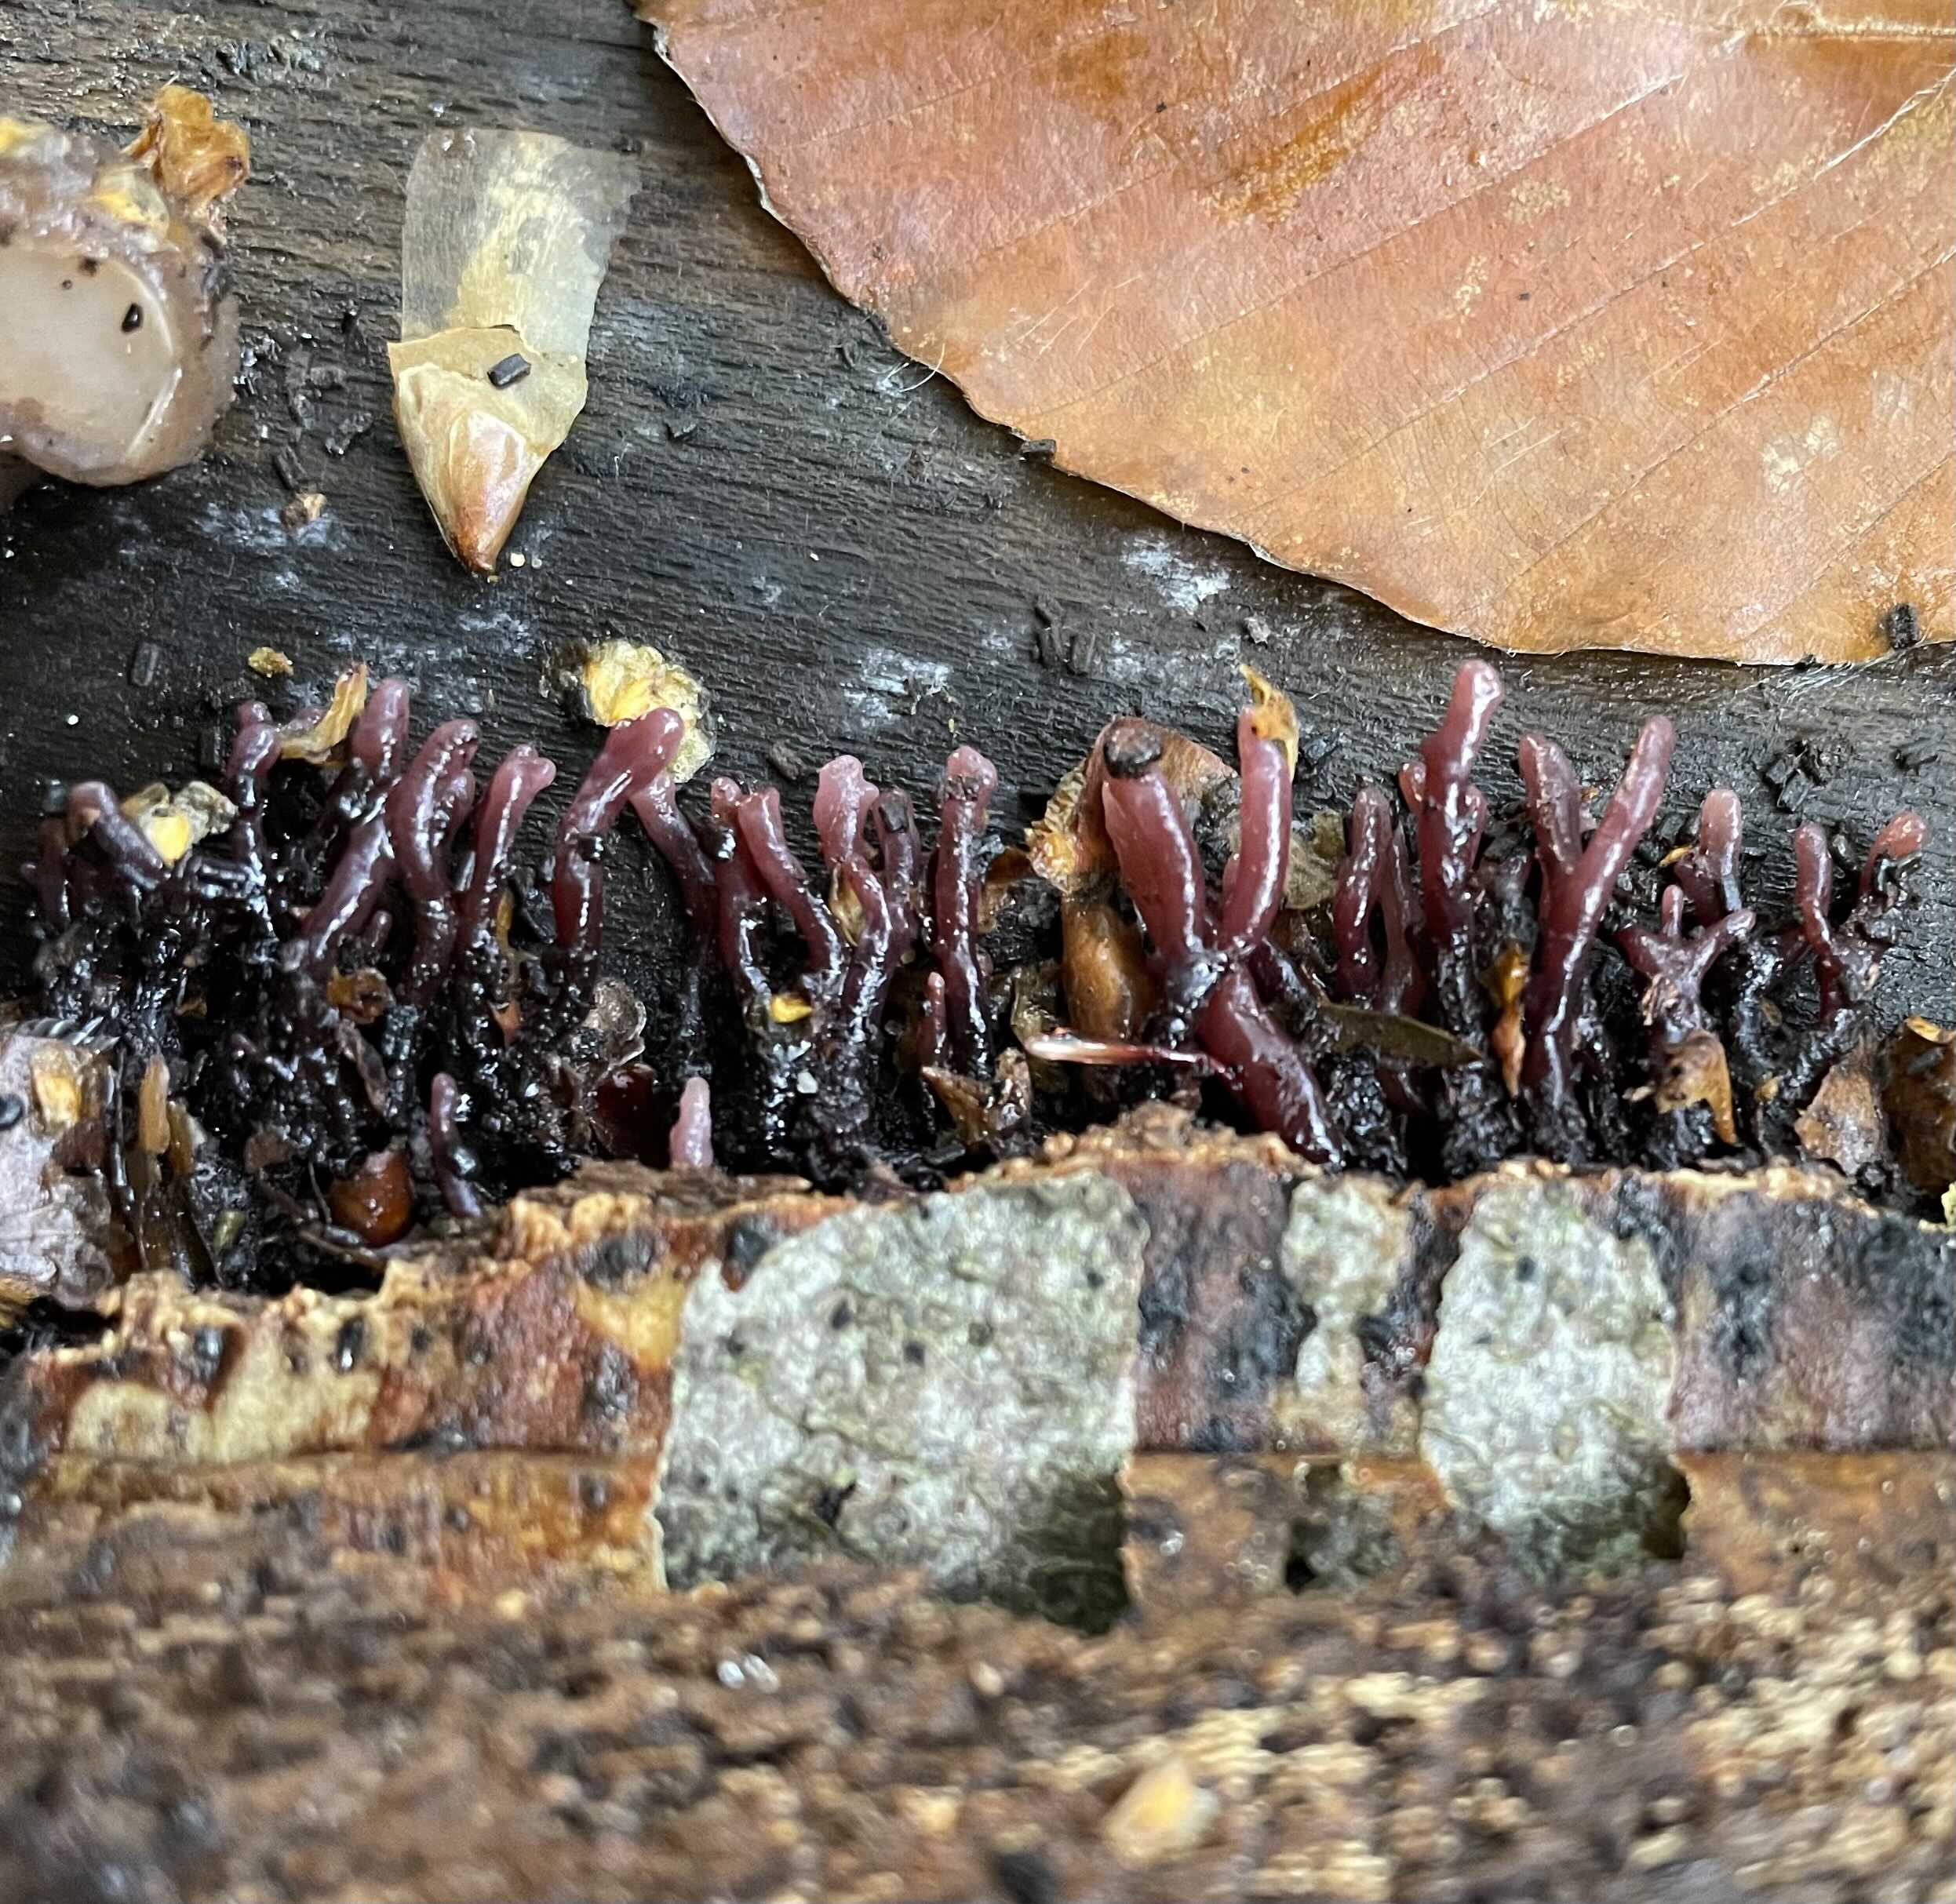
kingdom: Fungi
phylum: Ascomycota
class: Leotiomycetes
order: Helotiales
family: Gelatinodiscaceae
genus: Ascocoryne
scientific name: Ascocoryne sarcoides
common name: rødlilla sejskive
